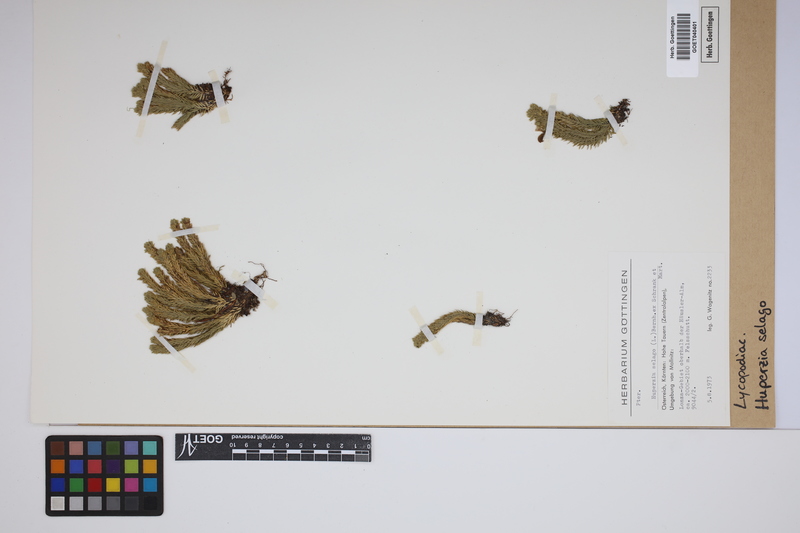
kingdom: Plantae
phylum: Tracheophyta
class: Lycopodiopsida
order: Lycopodiales
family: Lycopodiaceae
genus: Huperzia
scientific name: Huperzia selago
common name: Northern firmoss
